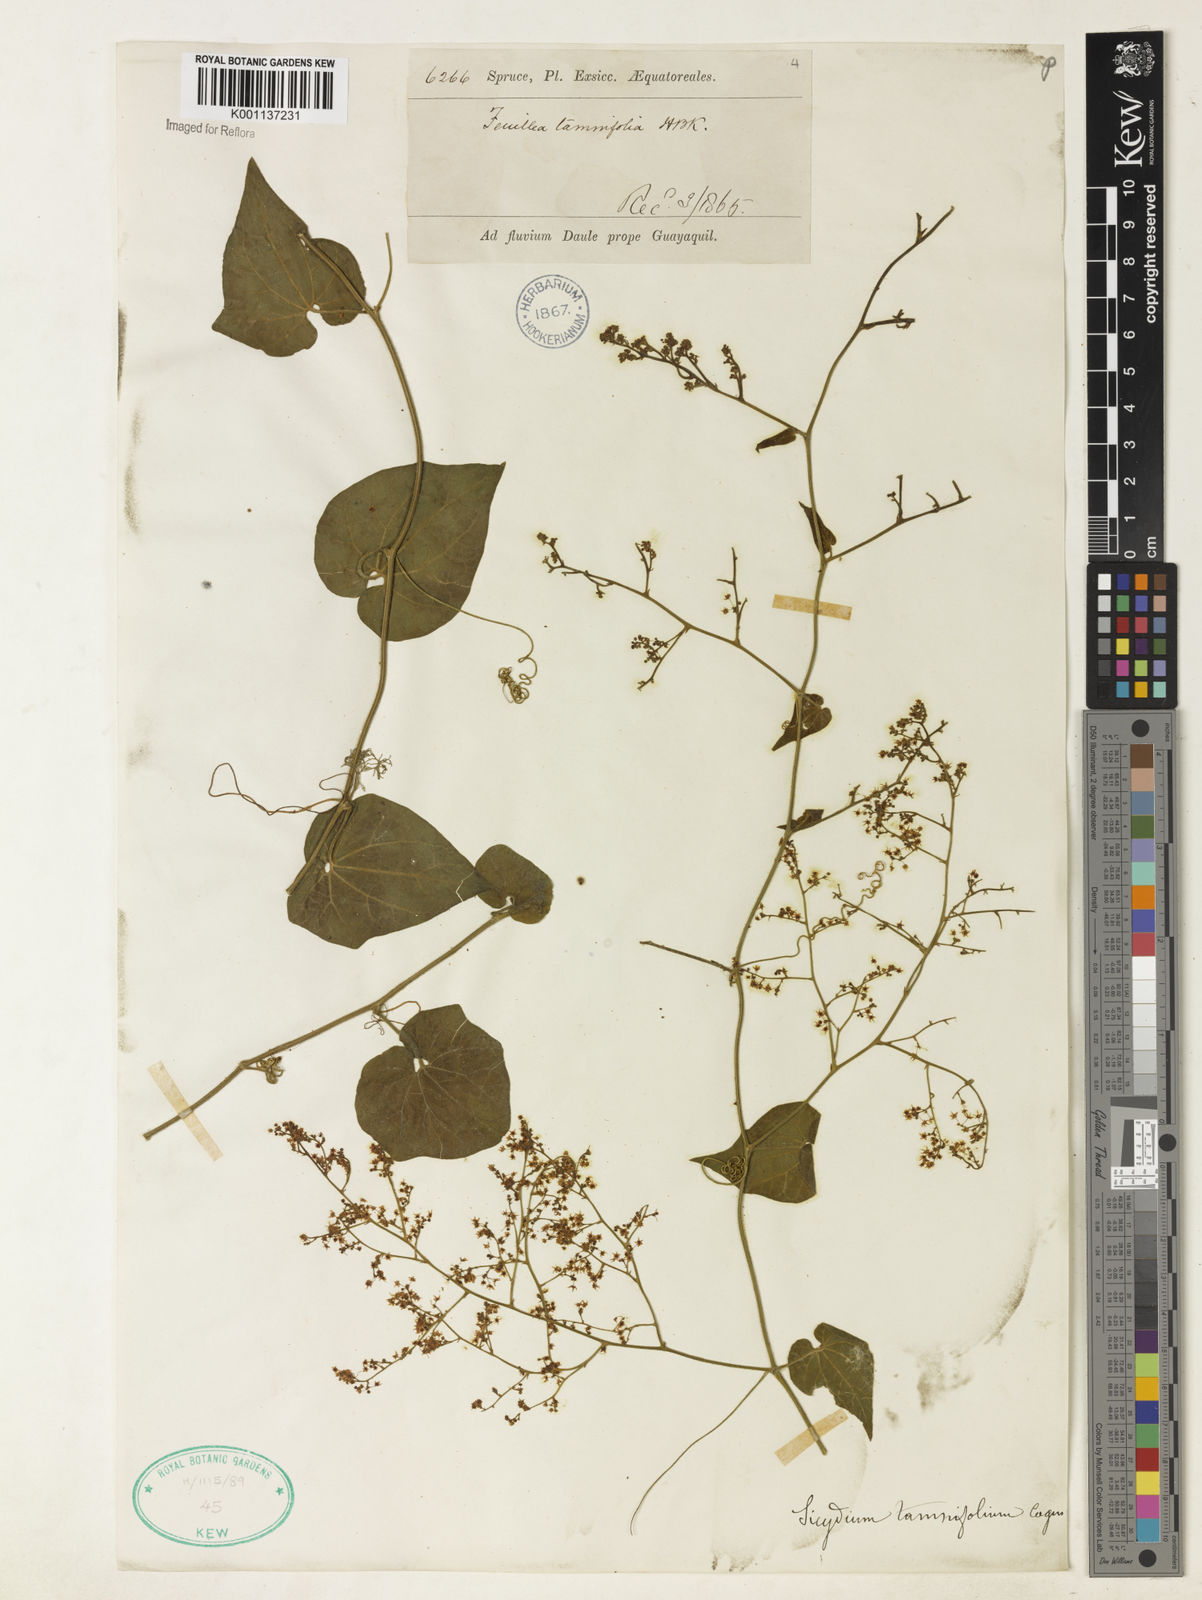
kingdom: Plantae
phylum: Tracheophyta
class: Magnoliopsida
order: Cucurbitales
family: Cucurbitaceae
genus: Sicydium
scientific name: Sicydium tamnifolium
